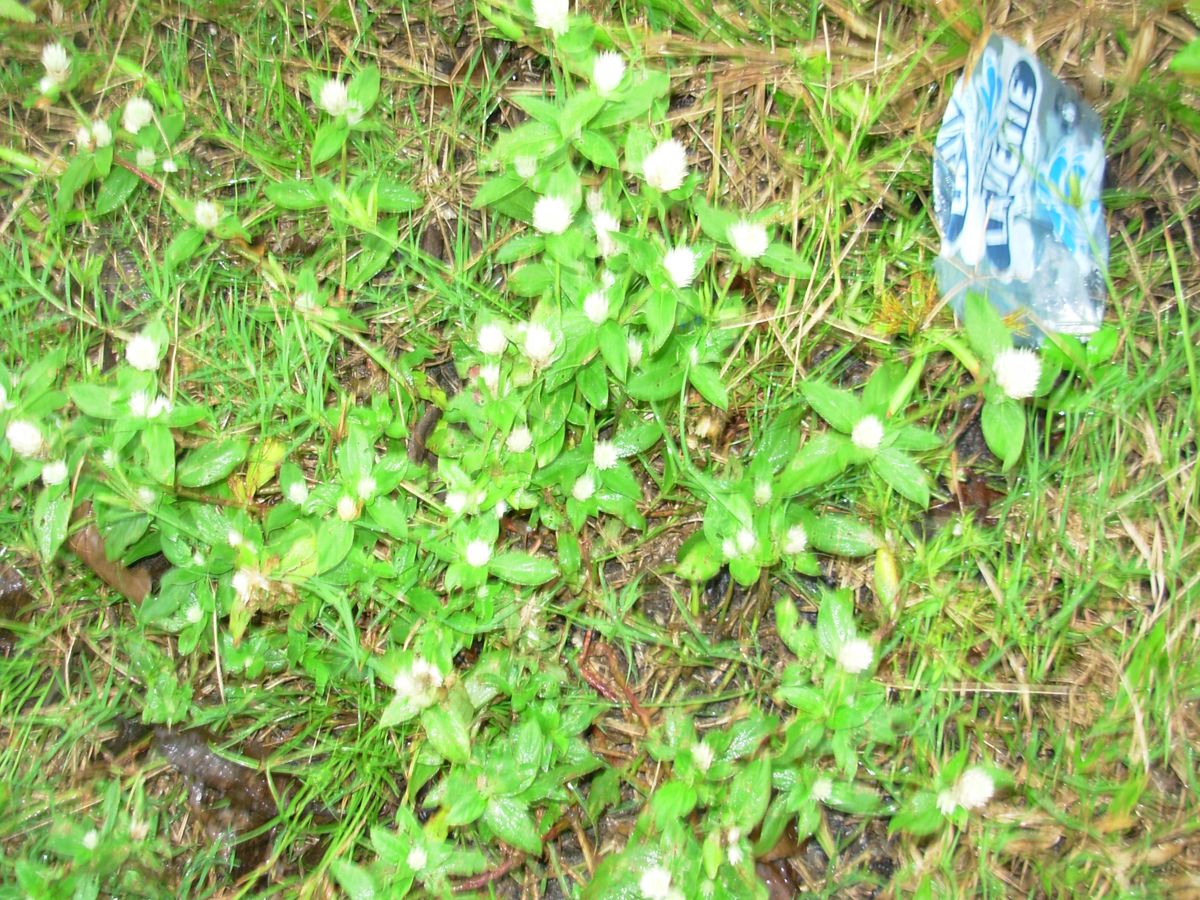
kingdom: Plantae
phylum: Tracheophyta
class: Magnoliopsida
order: Caryophyllales
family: Amaranthaceae
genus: Gomphrena
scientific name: Gomphrena serrata
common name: Arrasa con todo
